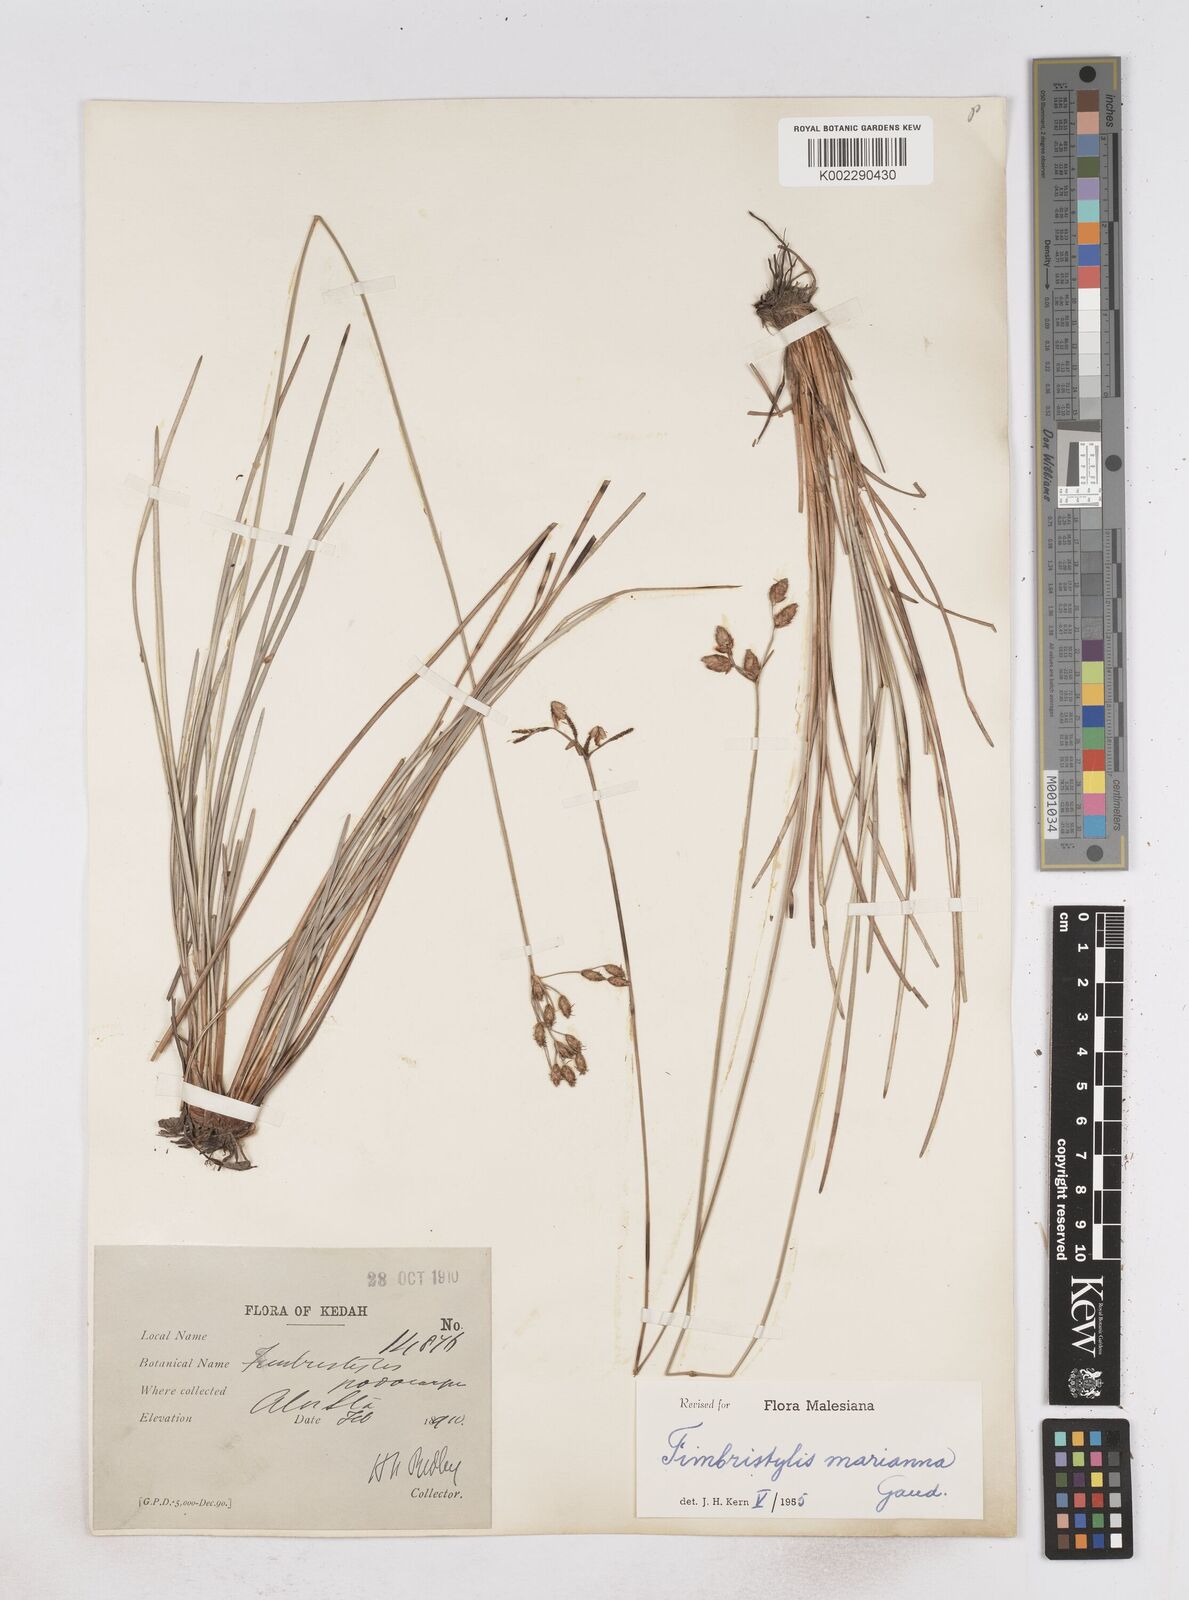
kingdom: Plantae
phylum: Tracheophyta
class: Liliopsida
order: Poales
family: Cyperaceae
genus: Fimbristylis
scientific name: Fimbristylis tristachya
